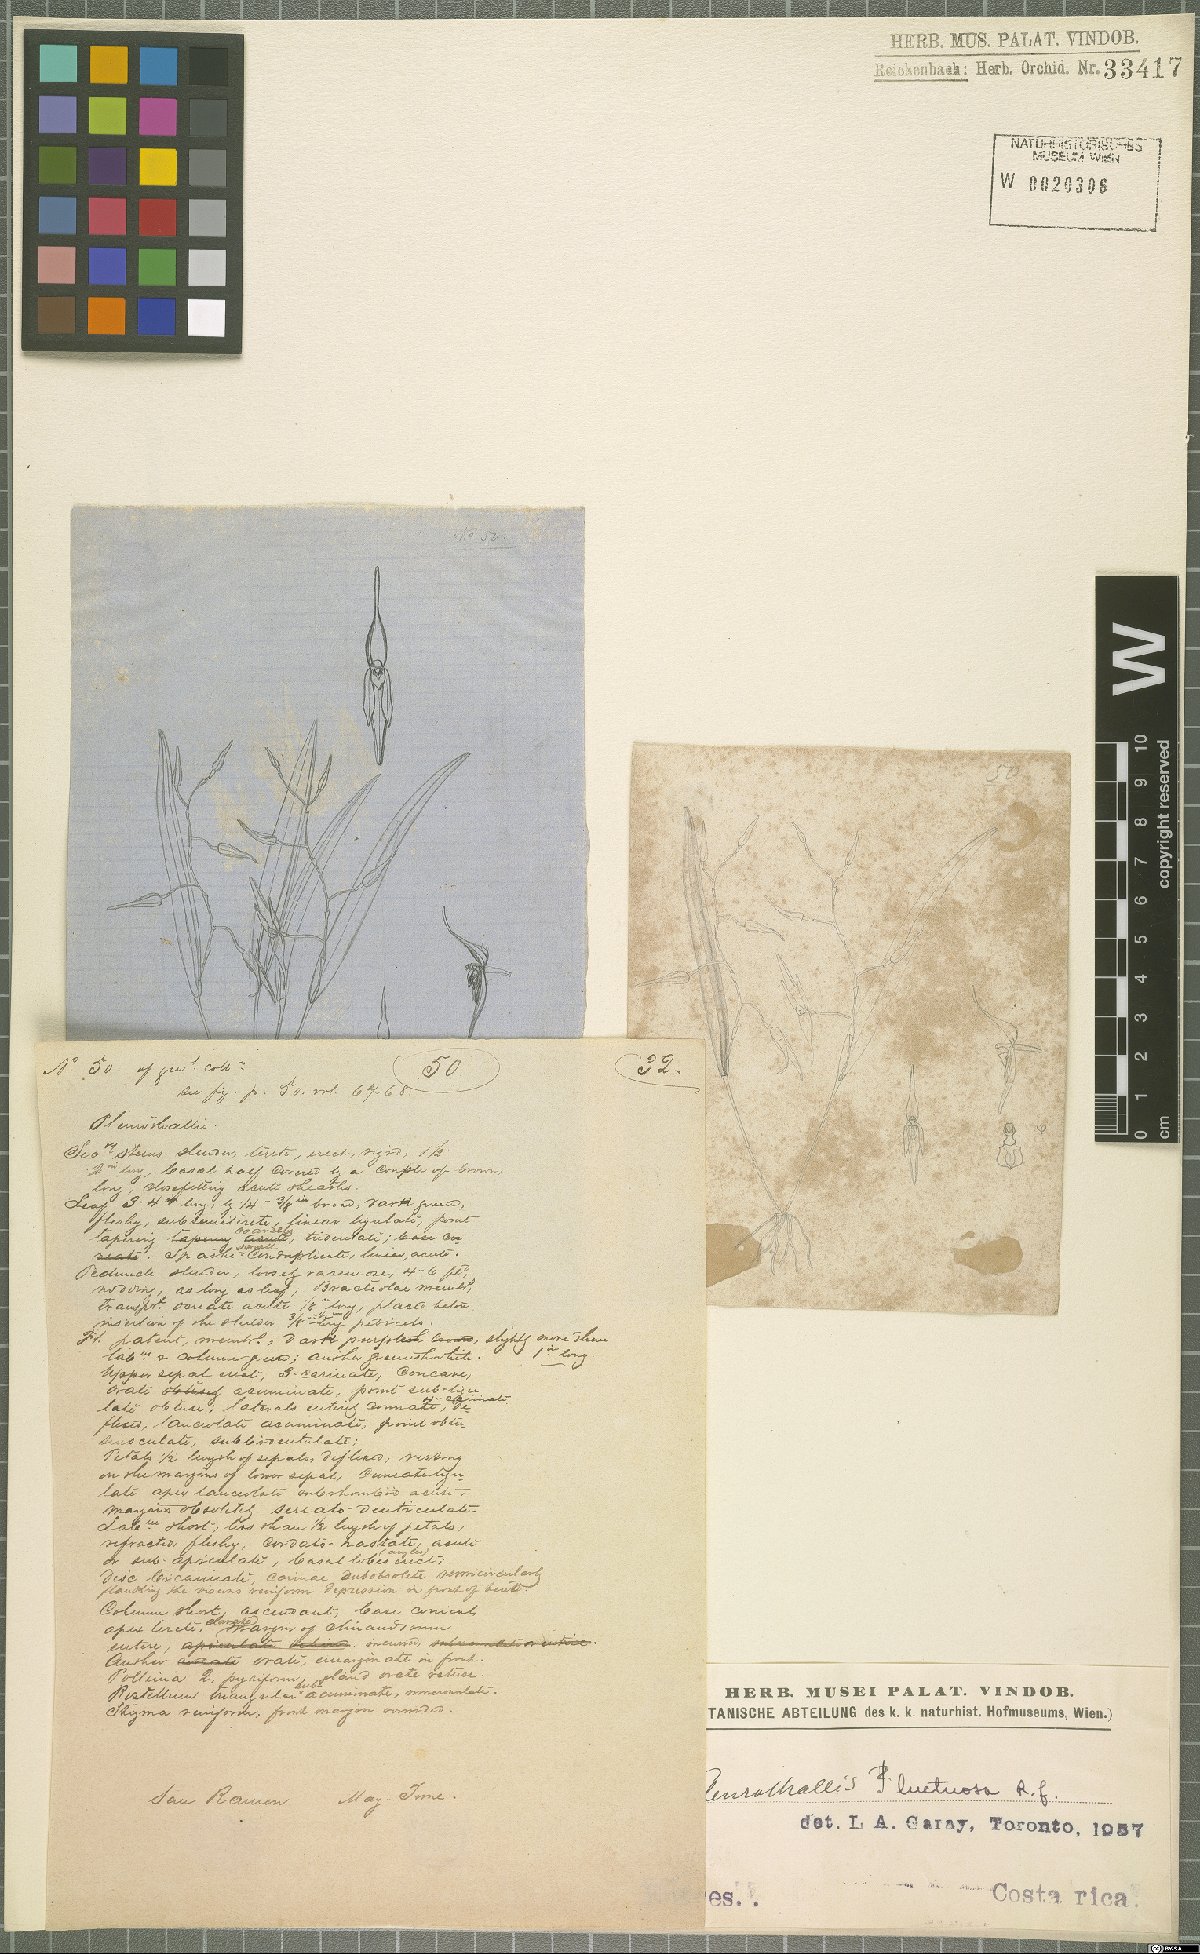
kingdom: Plantae
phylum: Tracheophyta
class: Liliopsida
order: Asparagales
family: Orchidaceae
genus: Pleurothallis
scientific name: Pleurothallis luctuosa
